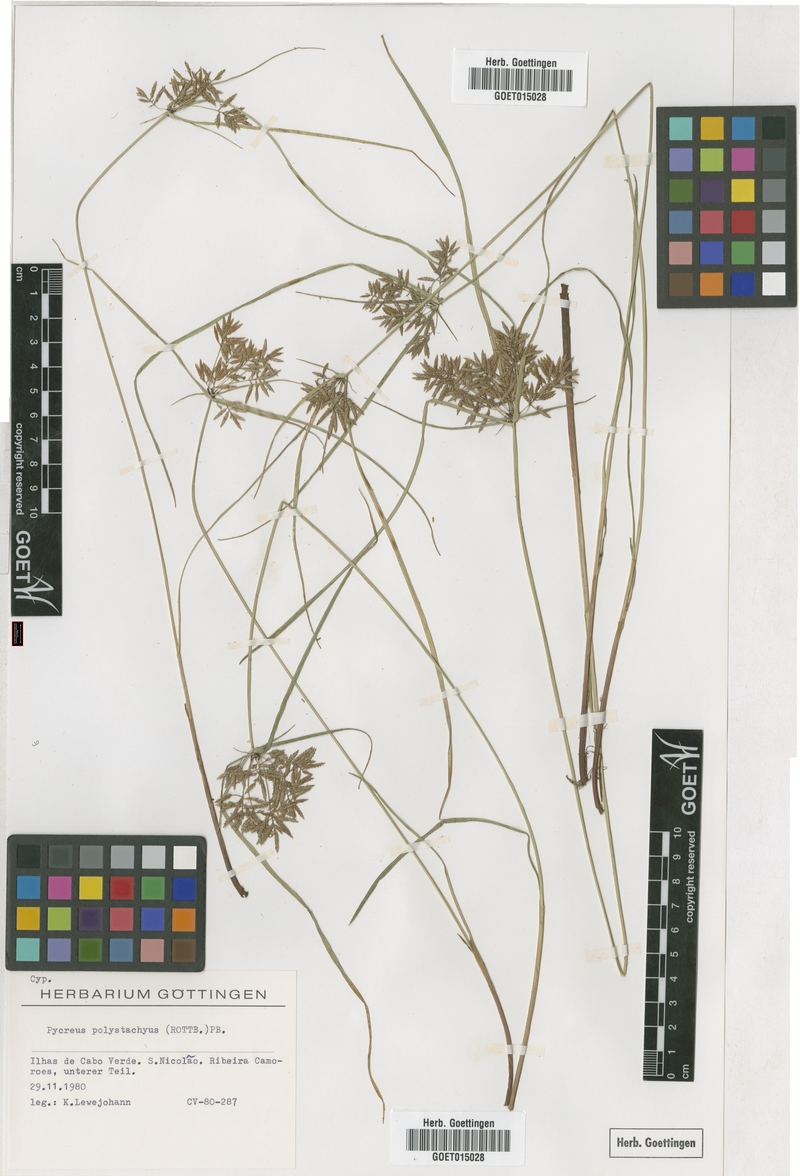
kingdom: Plantae
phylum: Tracheophyta
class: Liliopsida
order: Poales
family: Cyperaceae
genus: Cyperus
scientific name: Cyperus polystachyos
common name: Bunchy flat sedge
